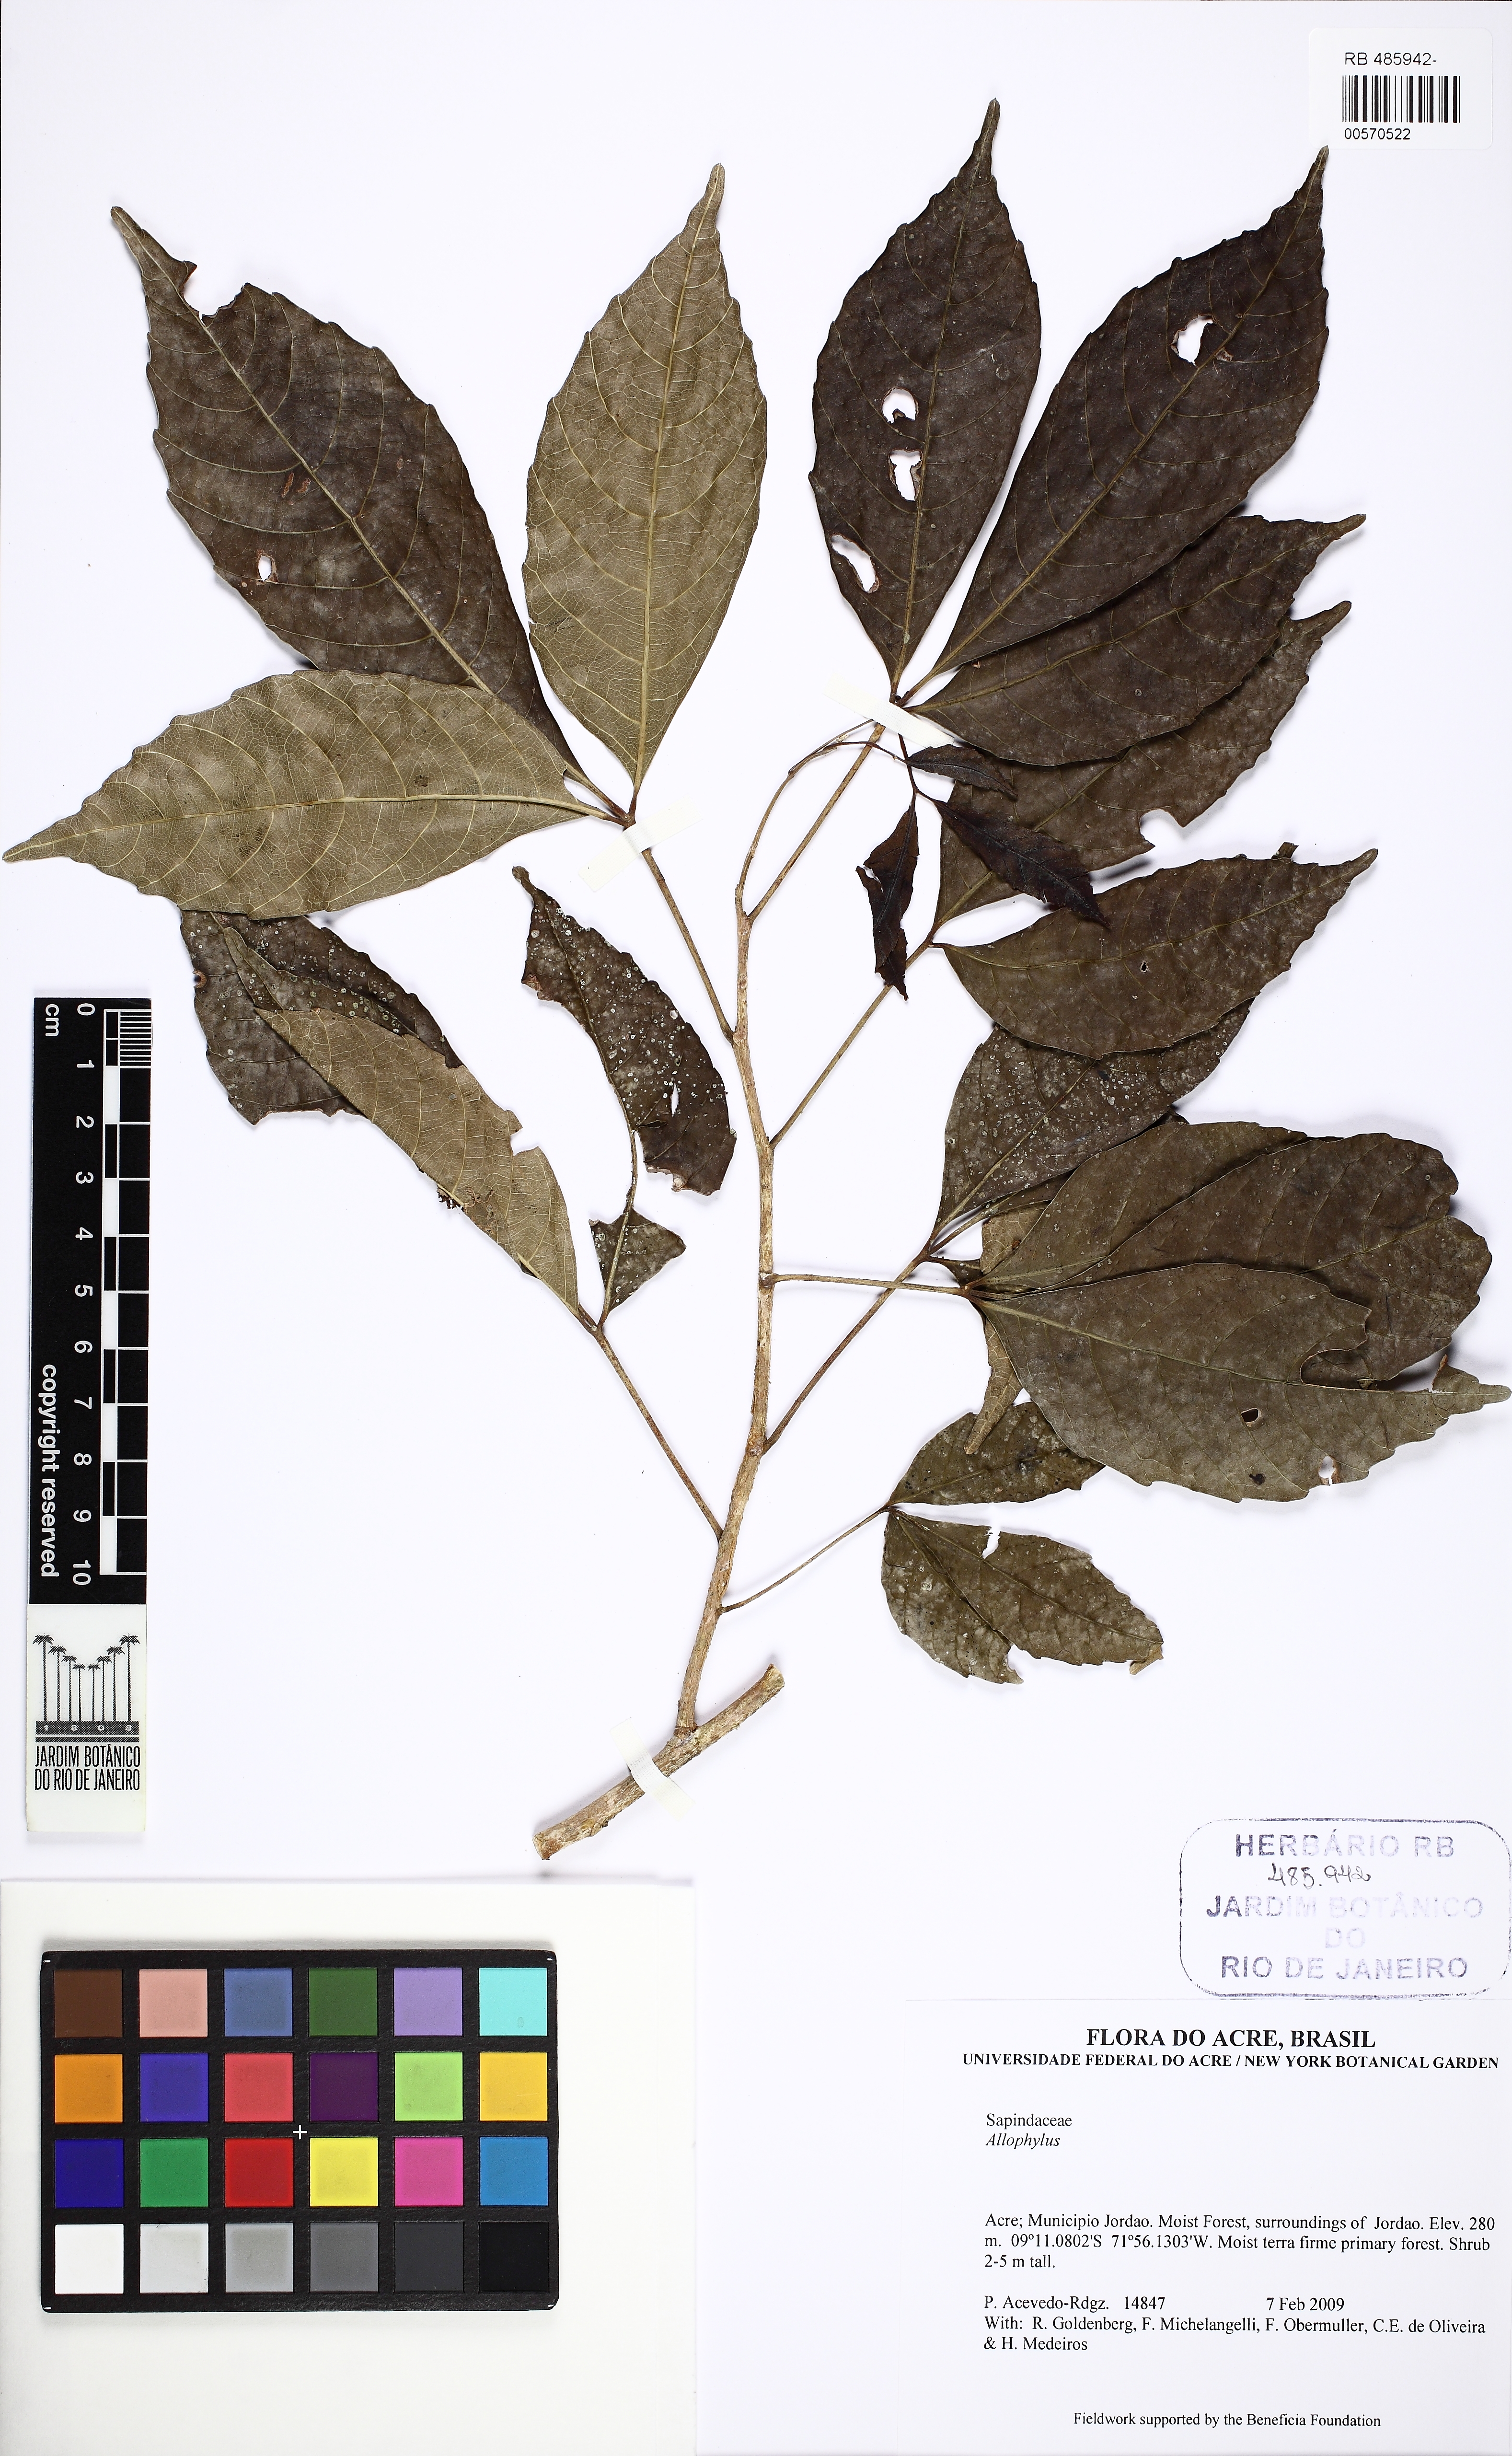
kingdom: Plantae
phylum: Tracheophyta
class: Magnoliopsida
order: Sapindales
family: Sapindaceae
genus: Allophylus
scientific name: Allophylus punctatus
